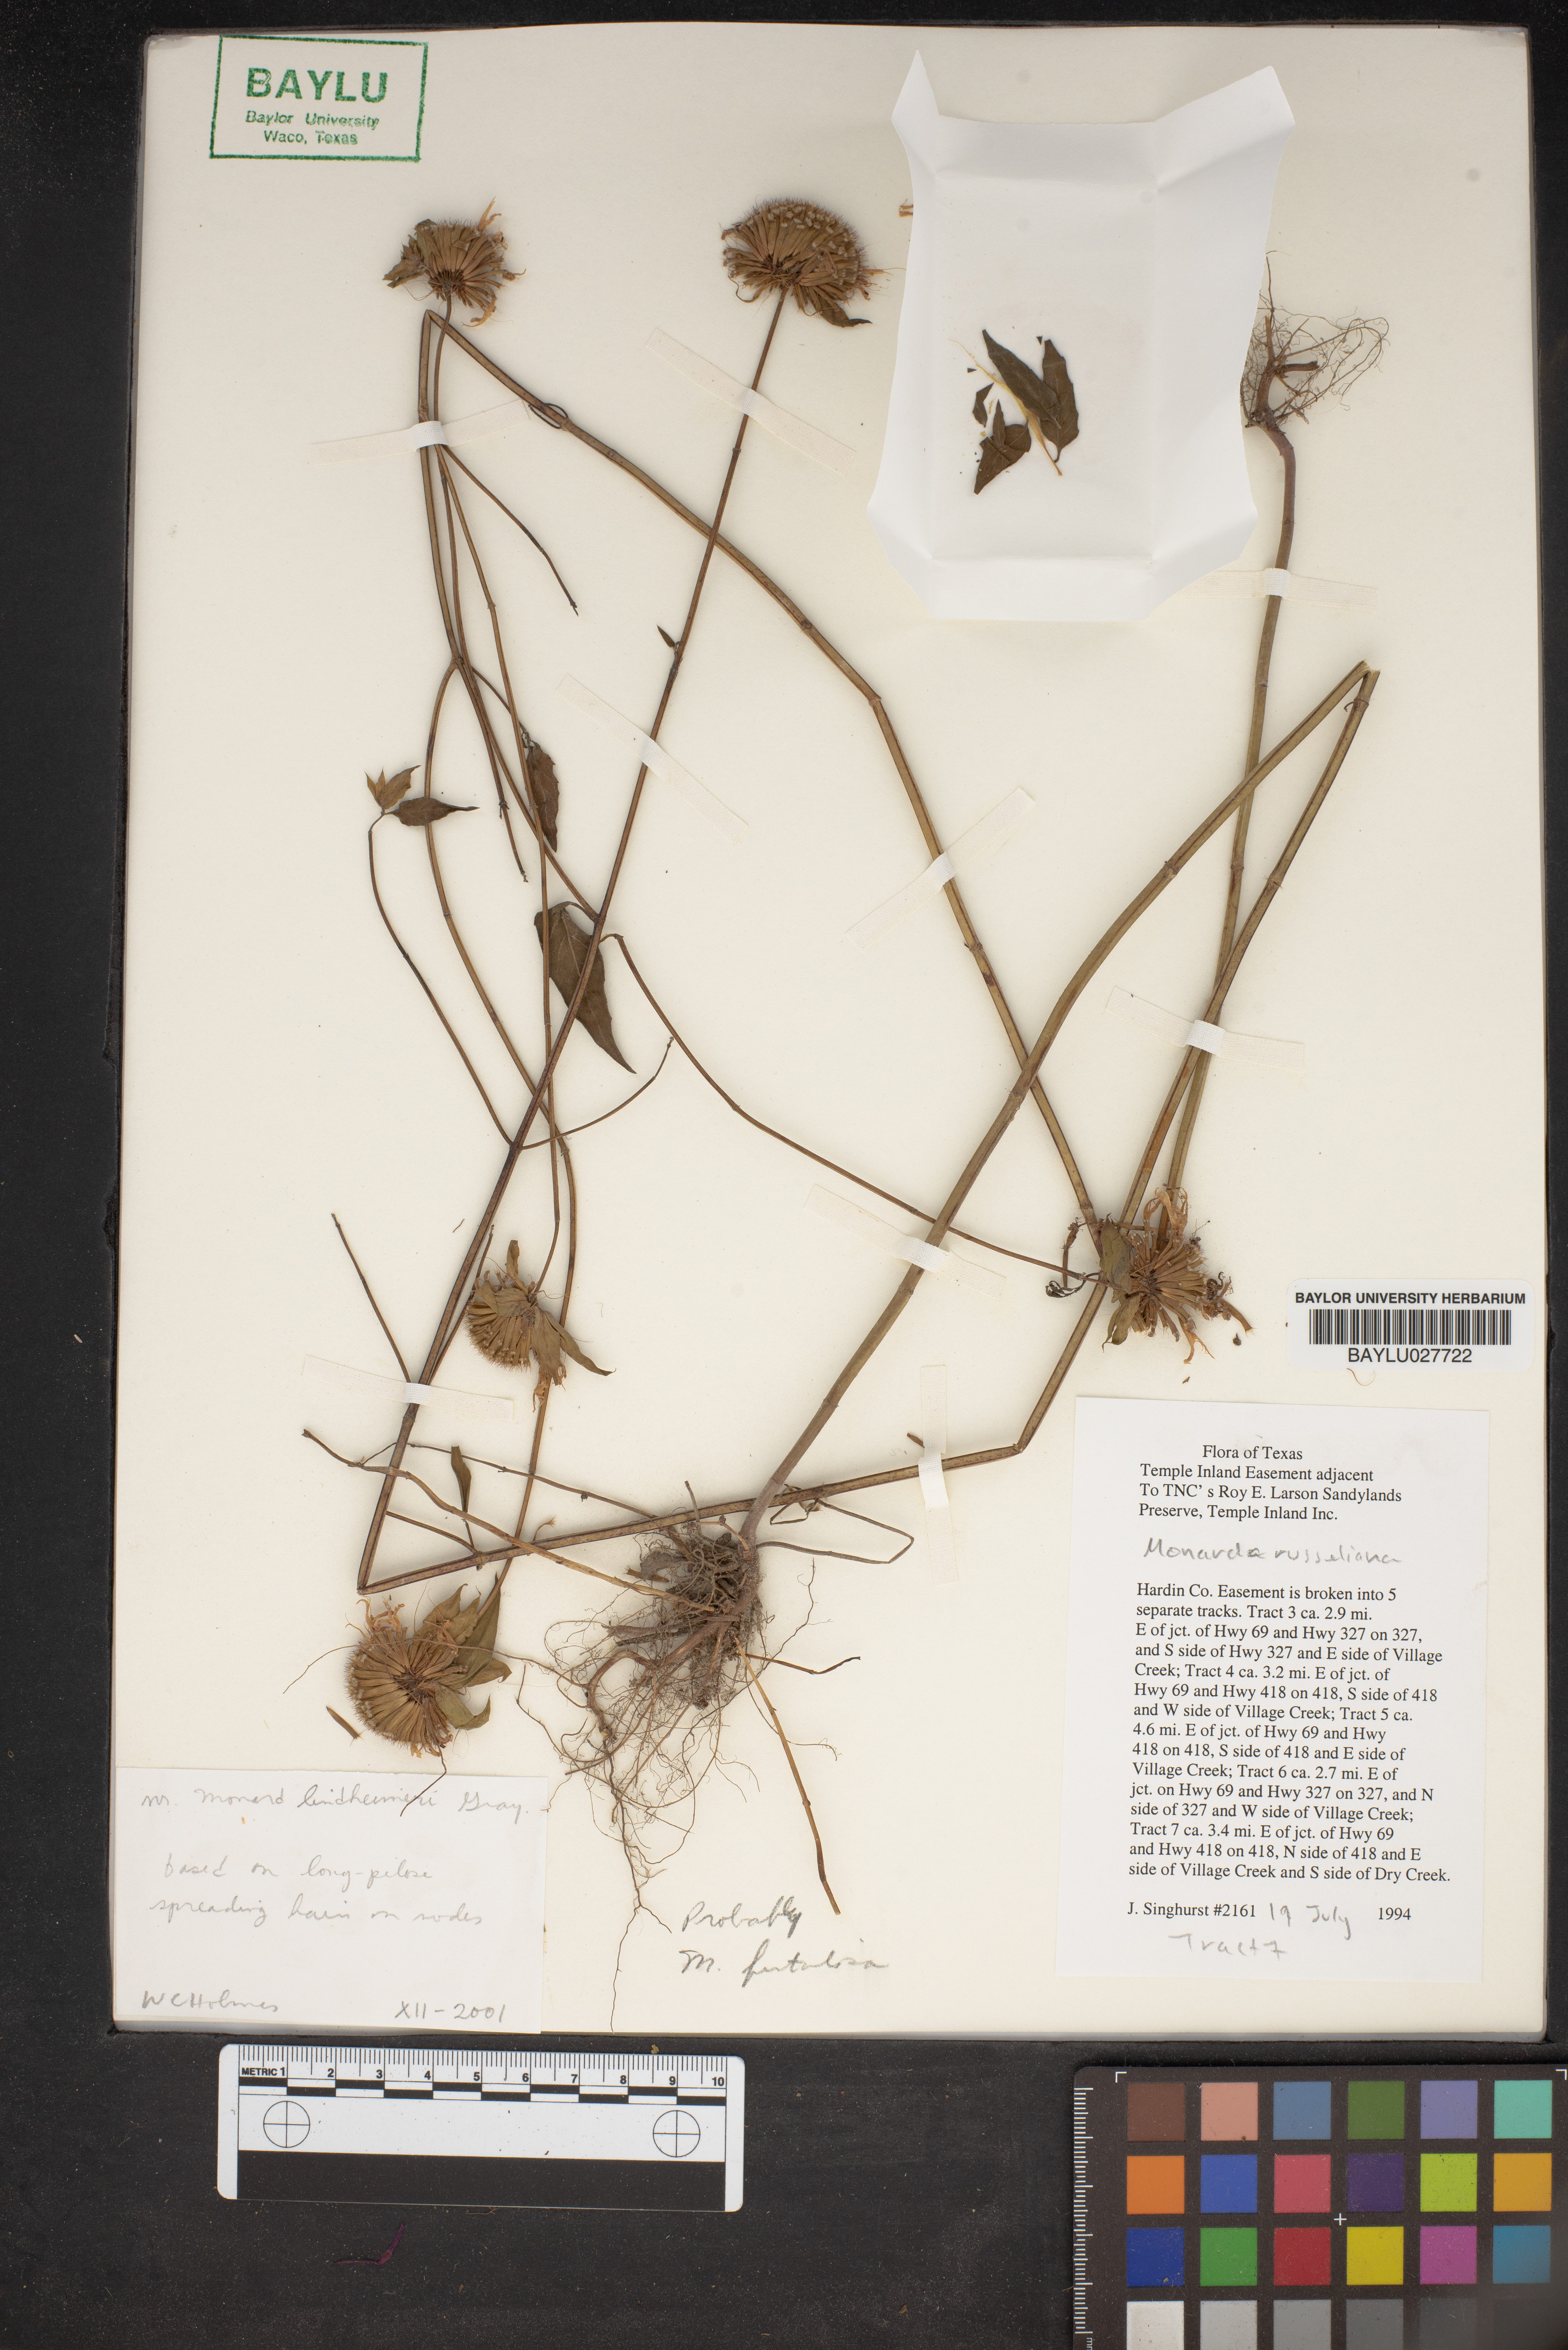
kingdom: Plantae
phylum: Tracheophyta
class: Magnoliopsida
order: Lamiales
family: Lamiaceae
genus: Monarda
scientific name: Monarda russeliana
